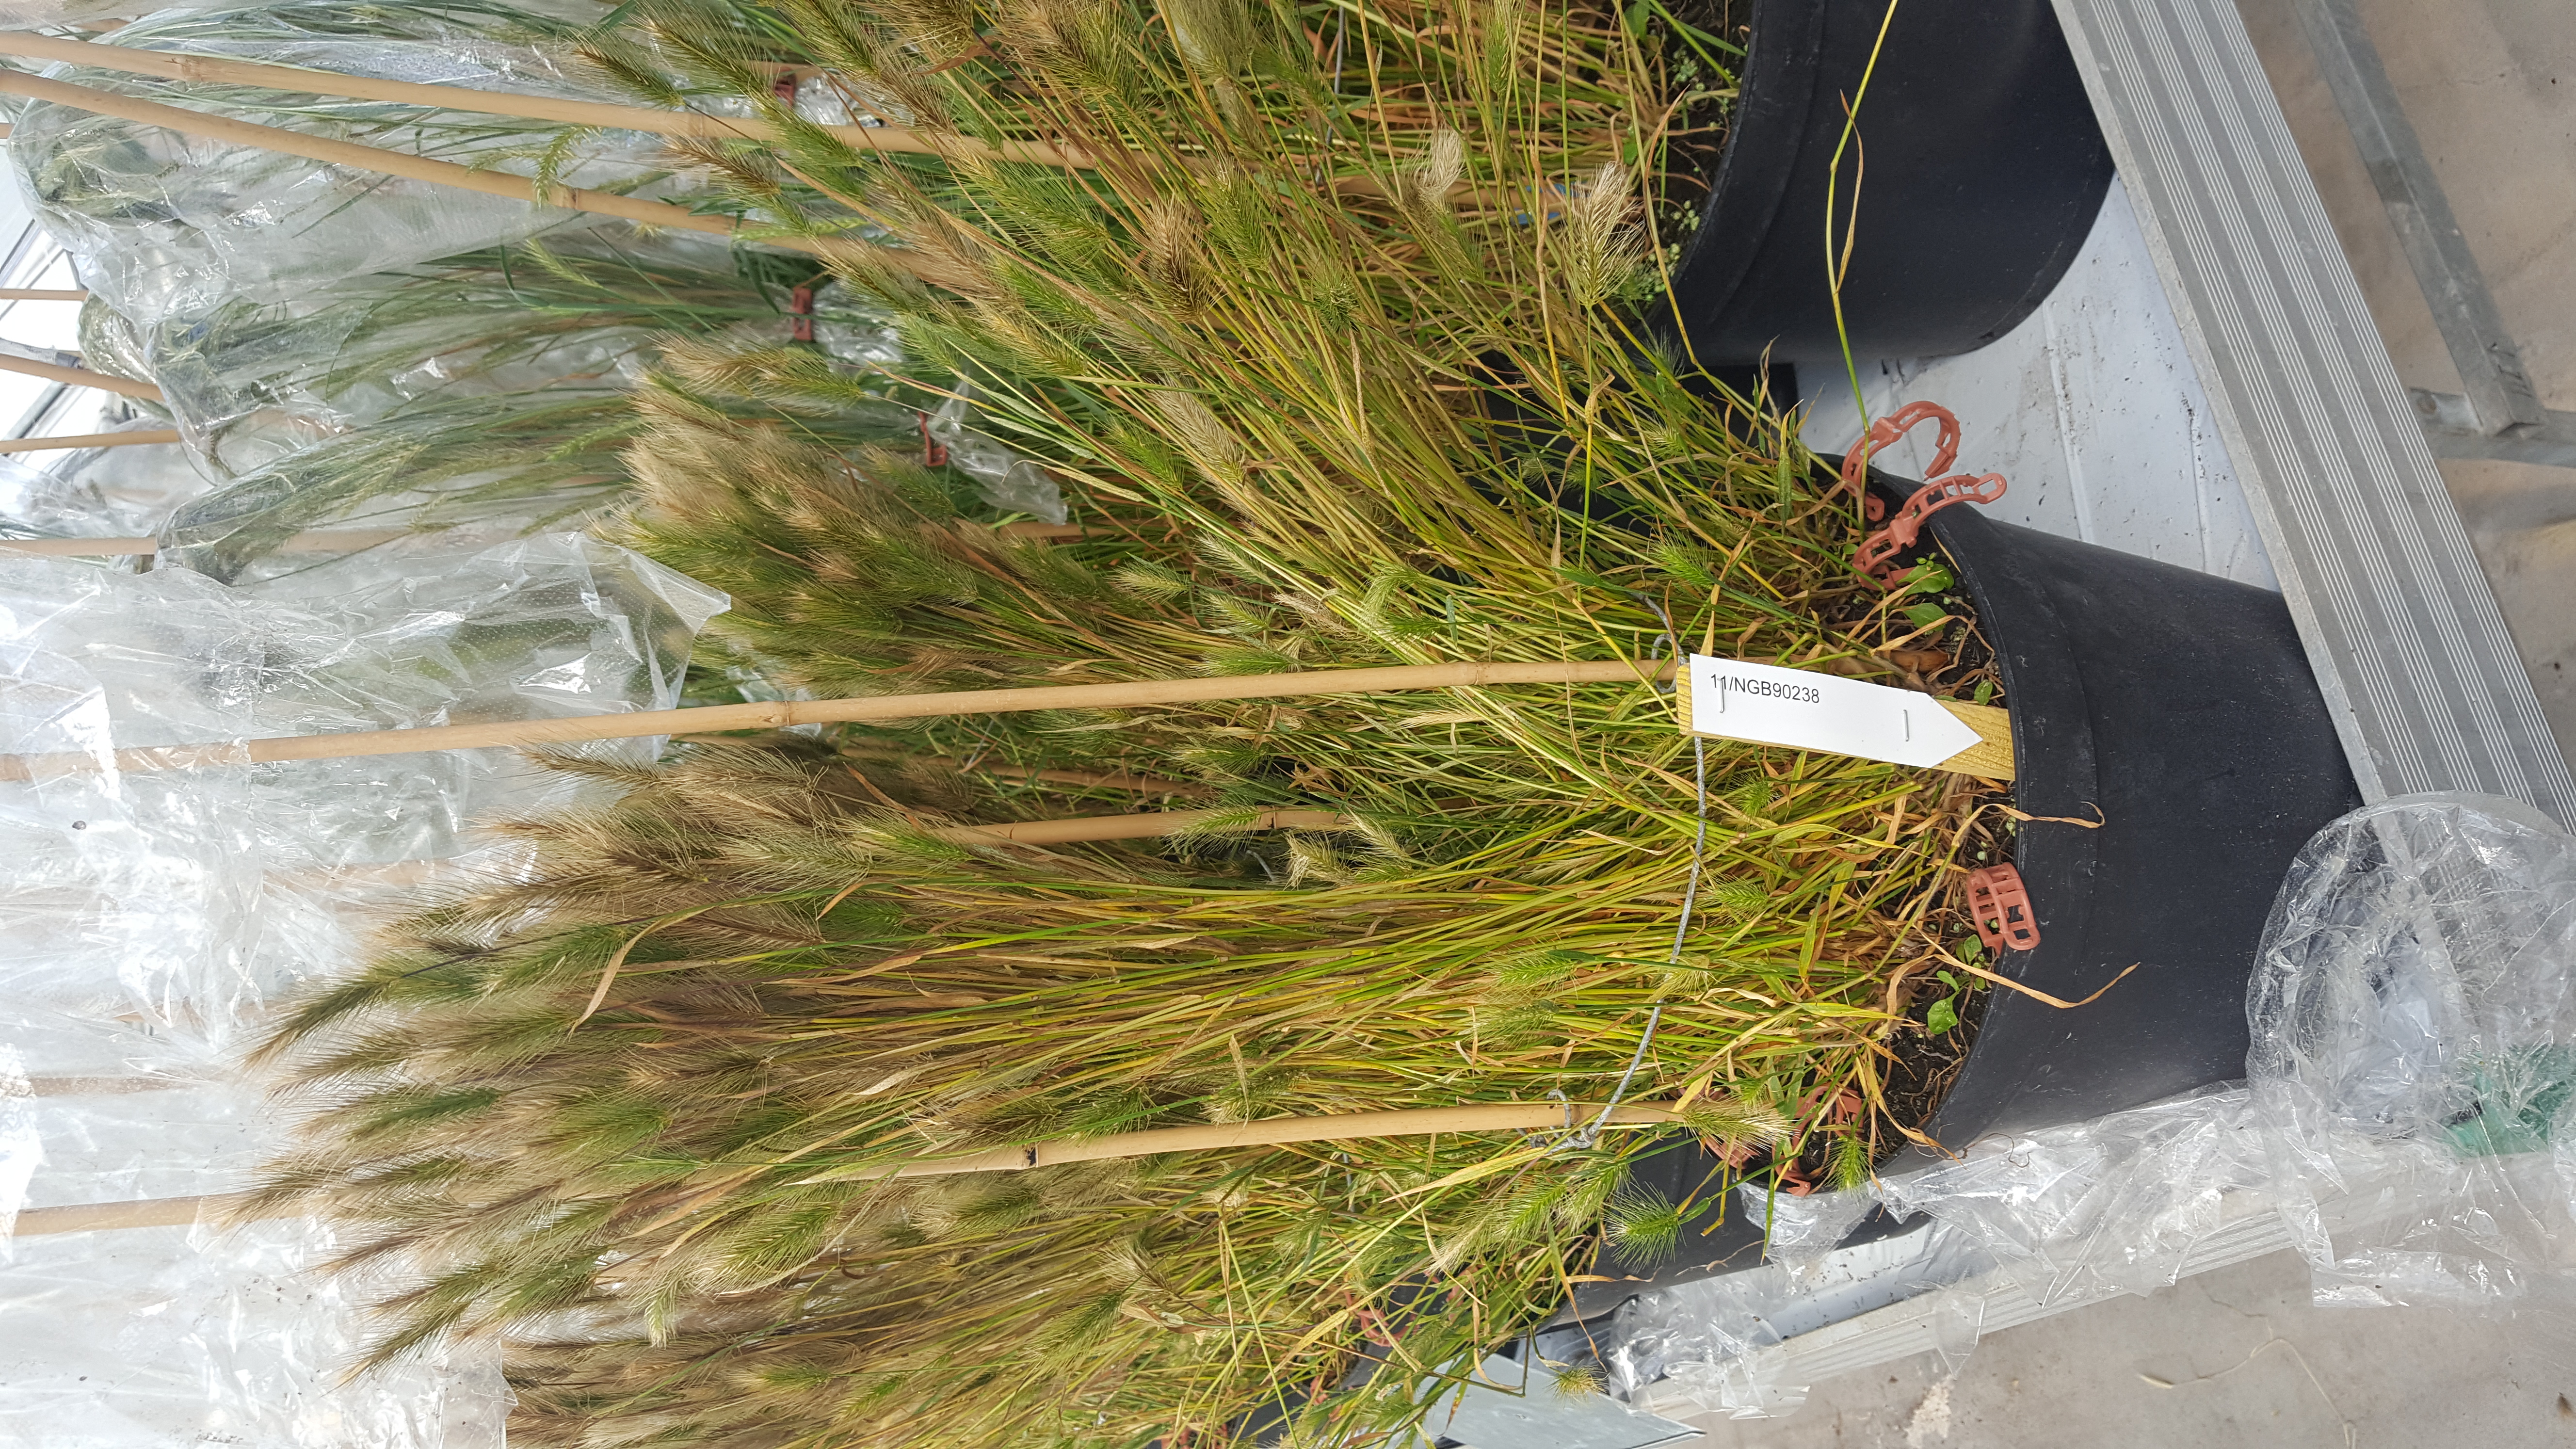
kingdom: Plantae
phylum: Tracheophyta
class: Liliopsida
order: Poales
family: Poaceae
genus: Hordeum
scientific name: Hordeum marinum
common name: Sea barley
